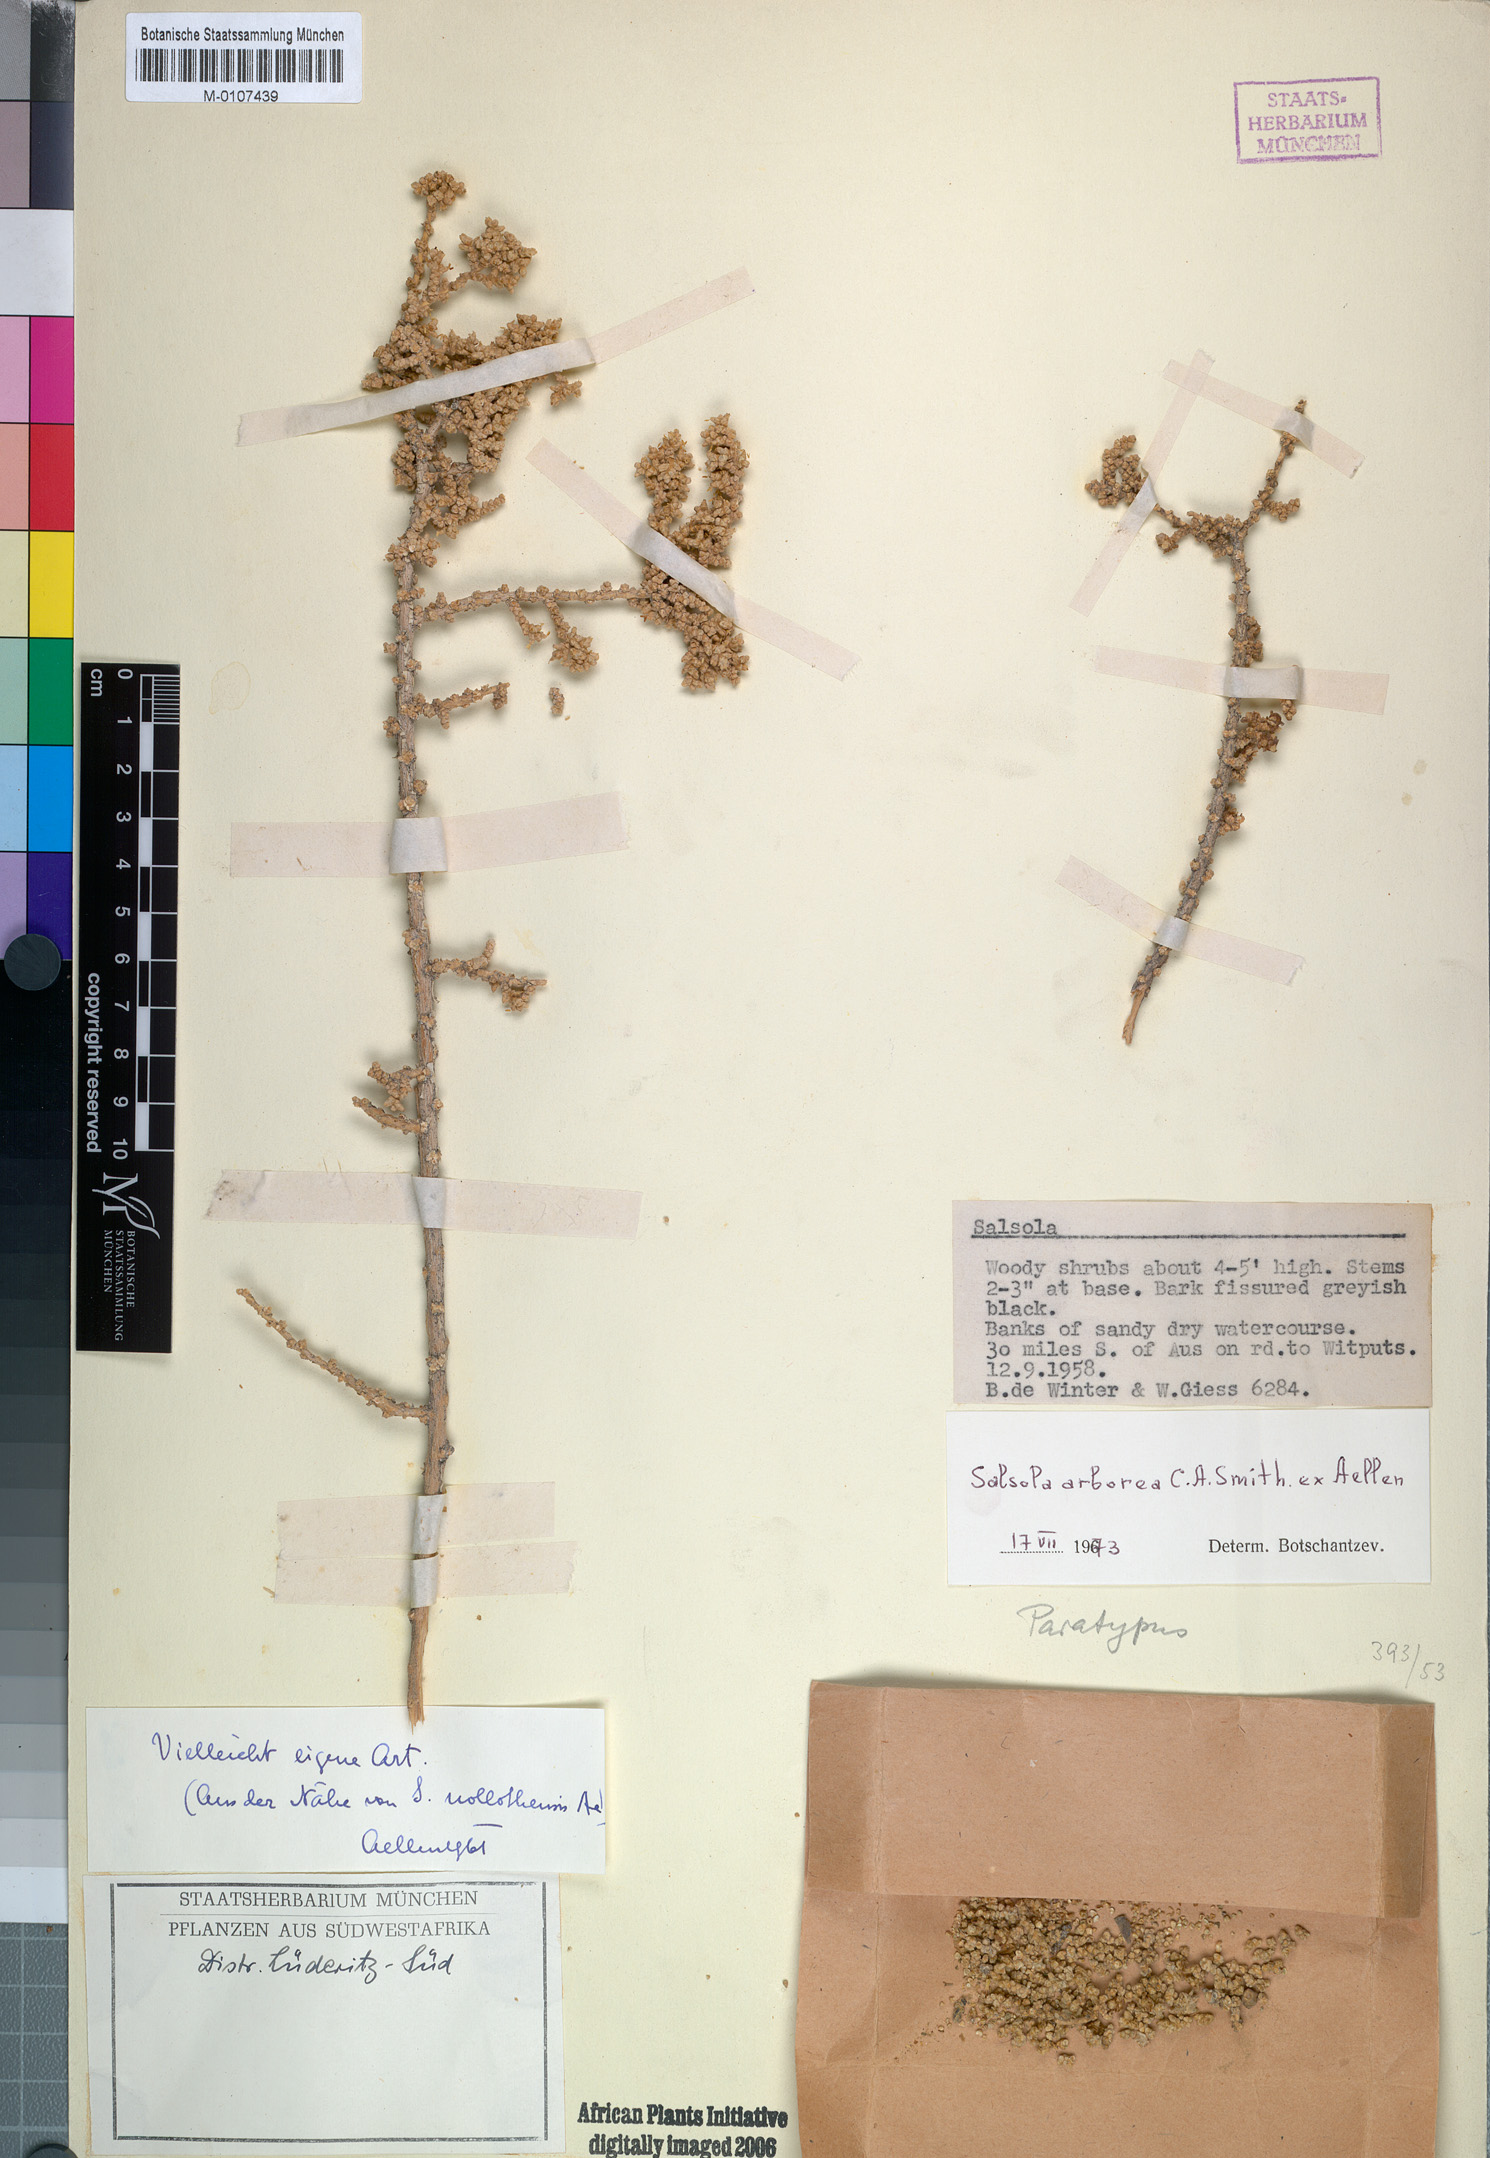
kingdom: Plantae
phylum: Tracheophyta
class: Magnoliopsida
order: Caryophyllales
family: Amaranthaceae
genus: Caroxylon
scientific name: Caroxylon arboreum
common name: Cattle ganna
